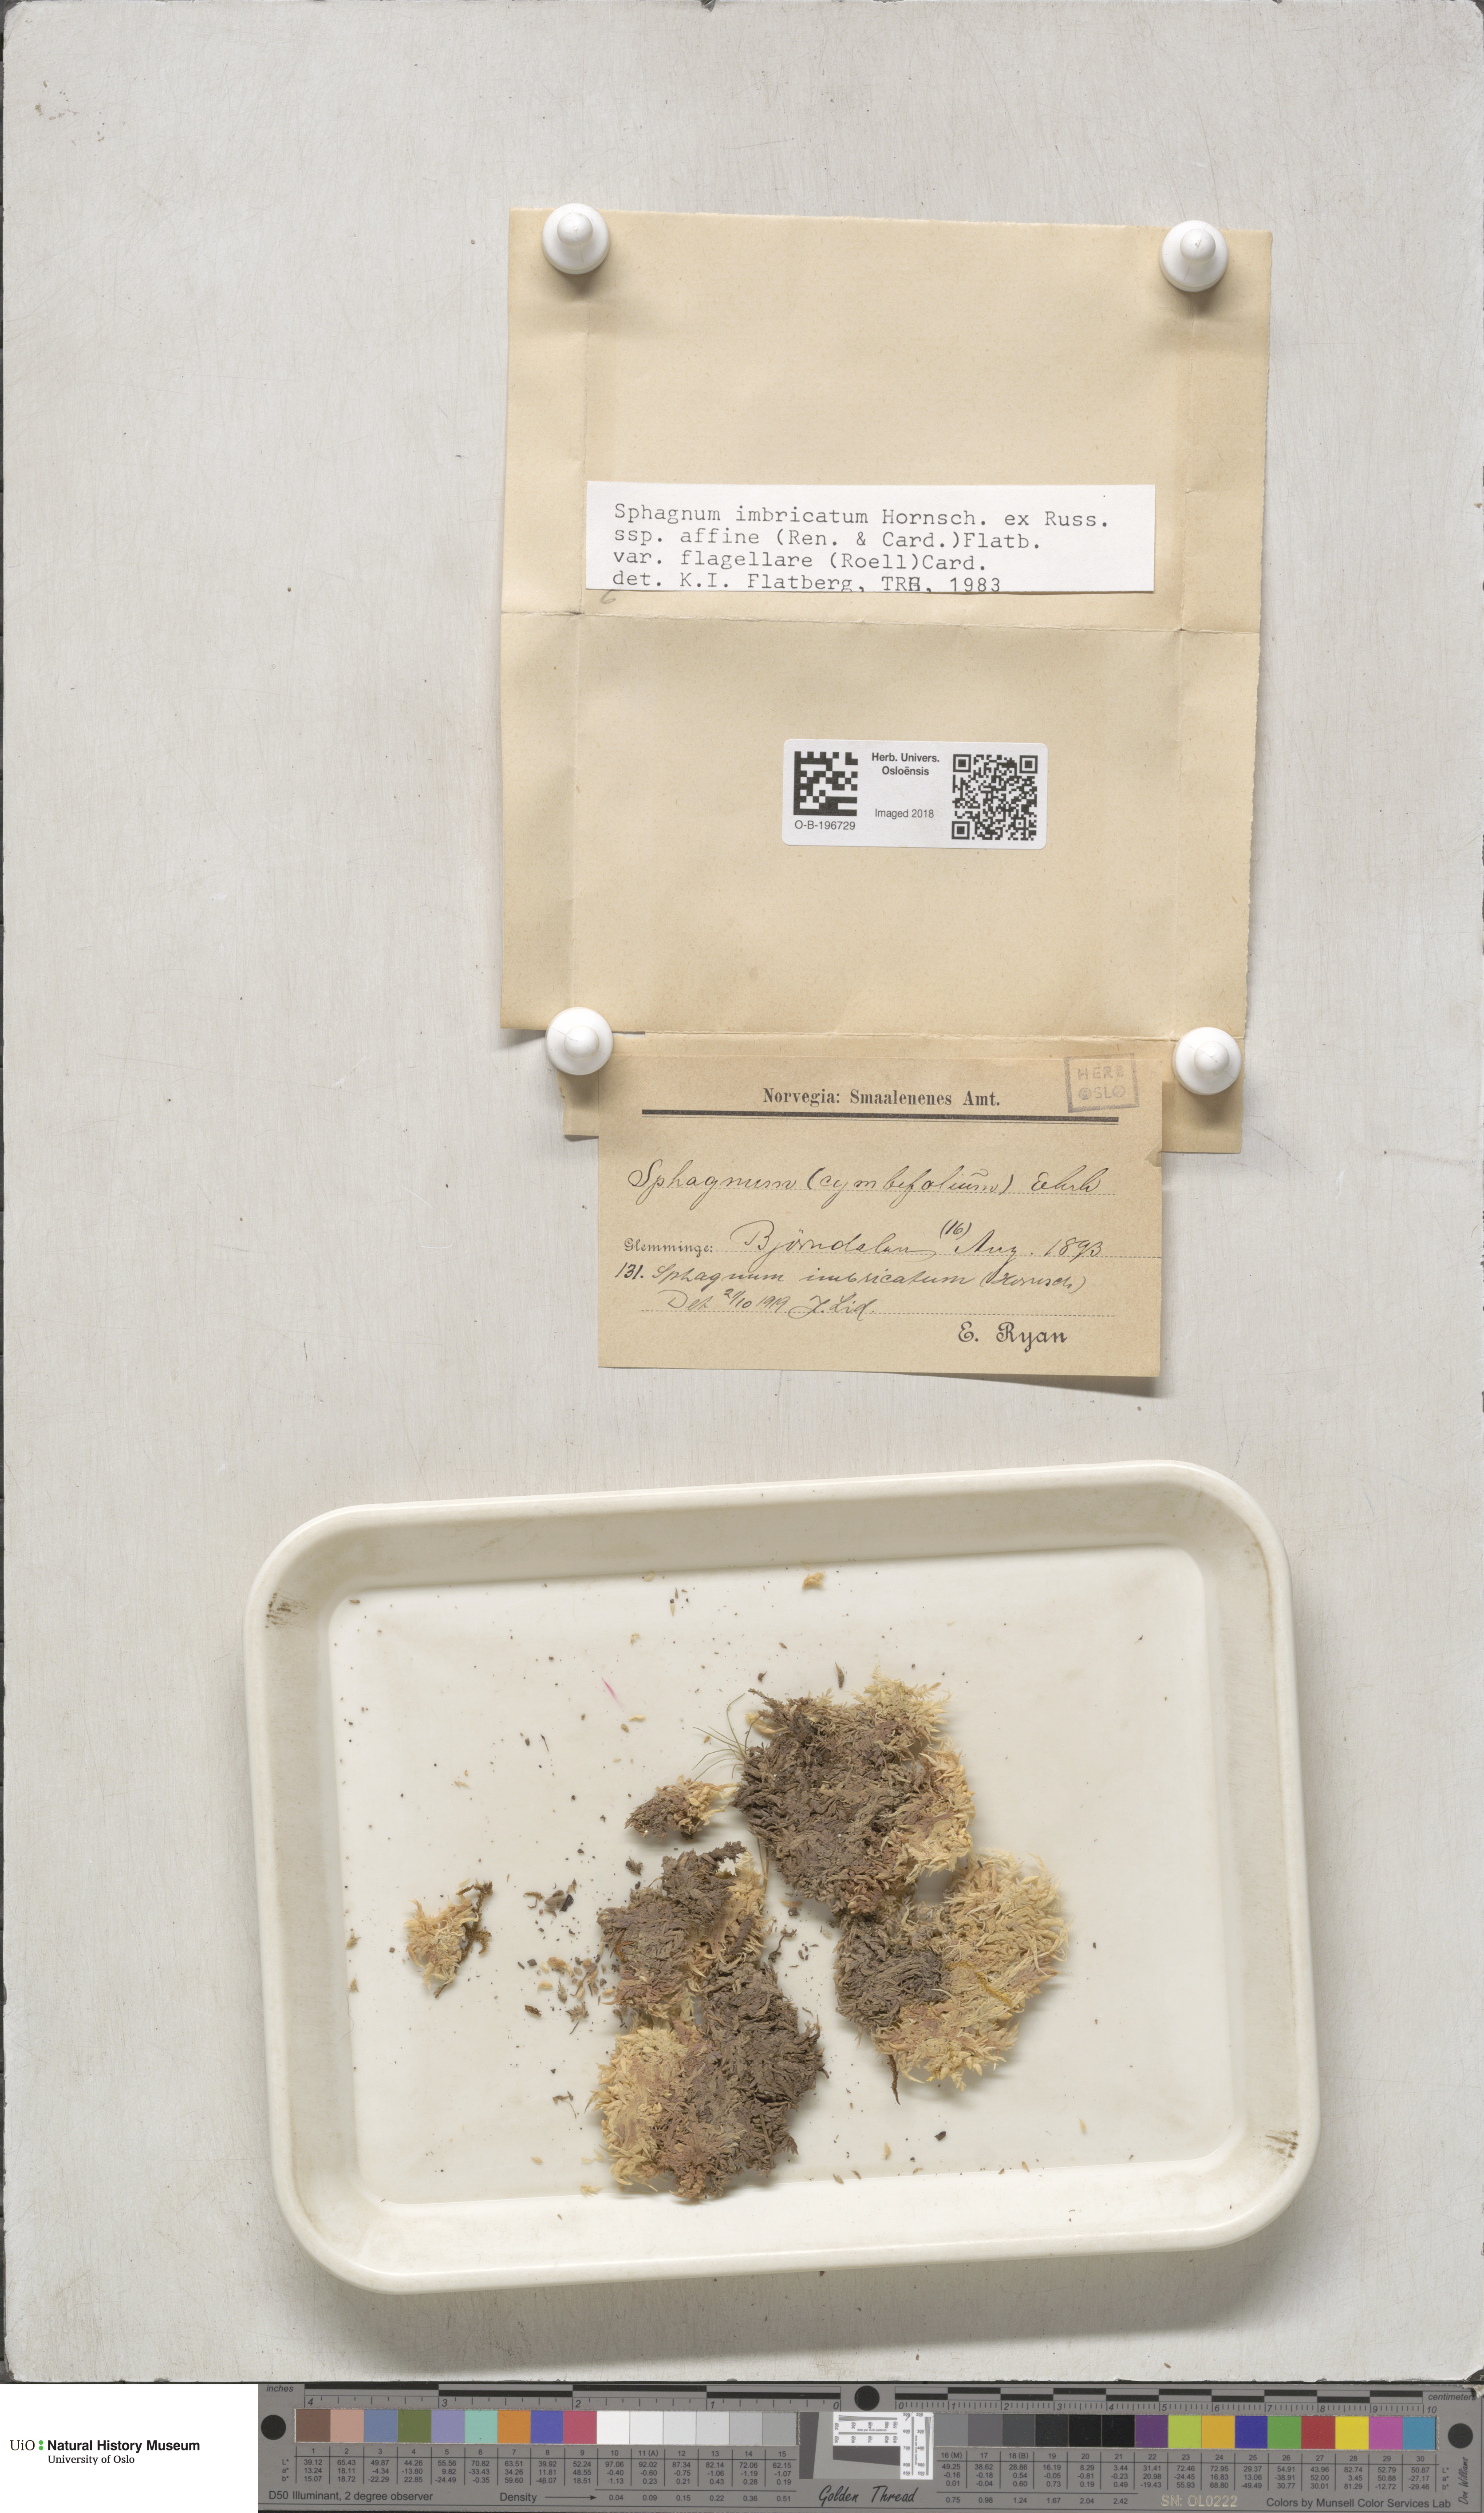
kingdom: Plantae
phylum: Bryophyta
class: Sphagnopsida
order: Sphagnales
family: Sphagnaceae
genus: Sphagnum
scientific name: Sphagnum affine
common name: Imbricate peat moss
